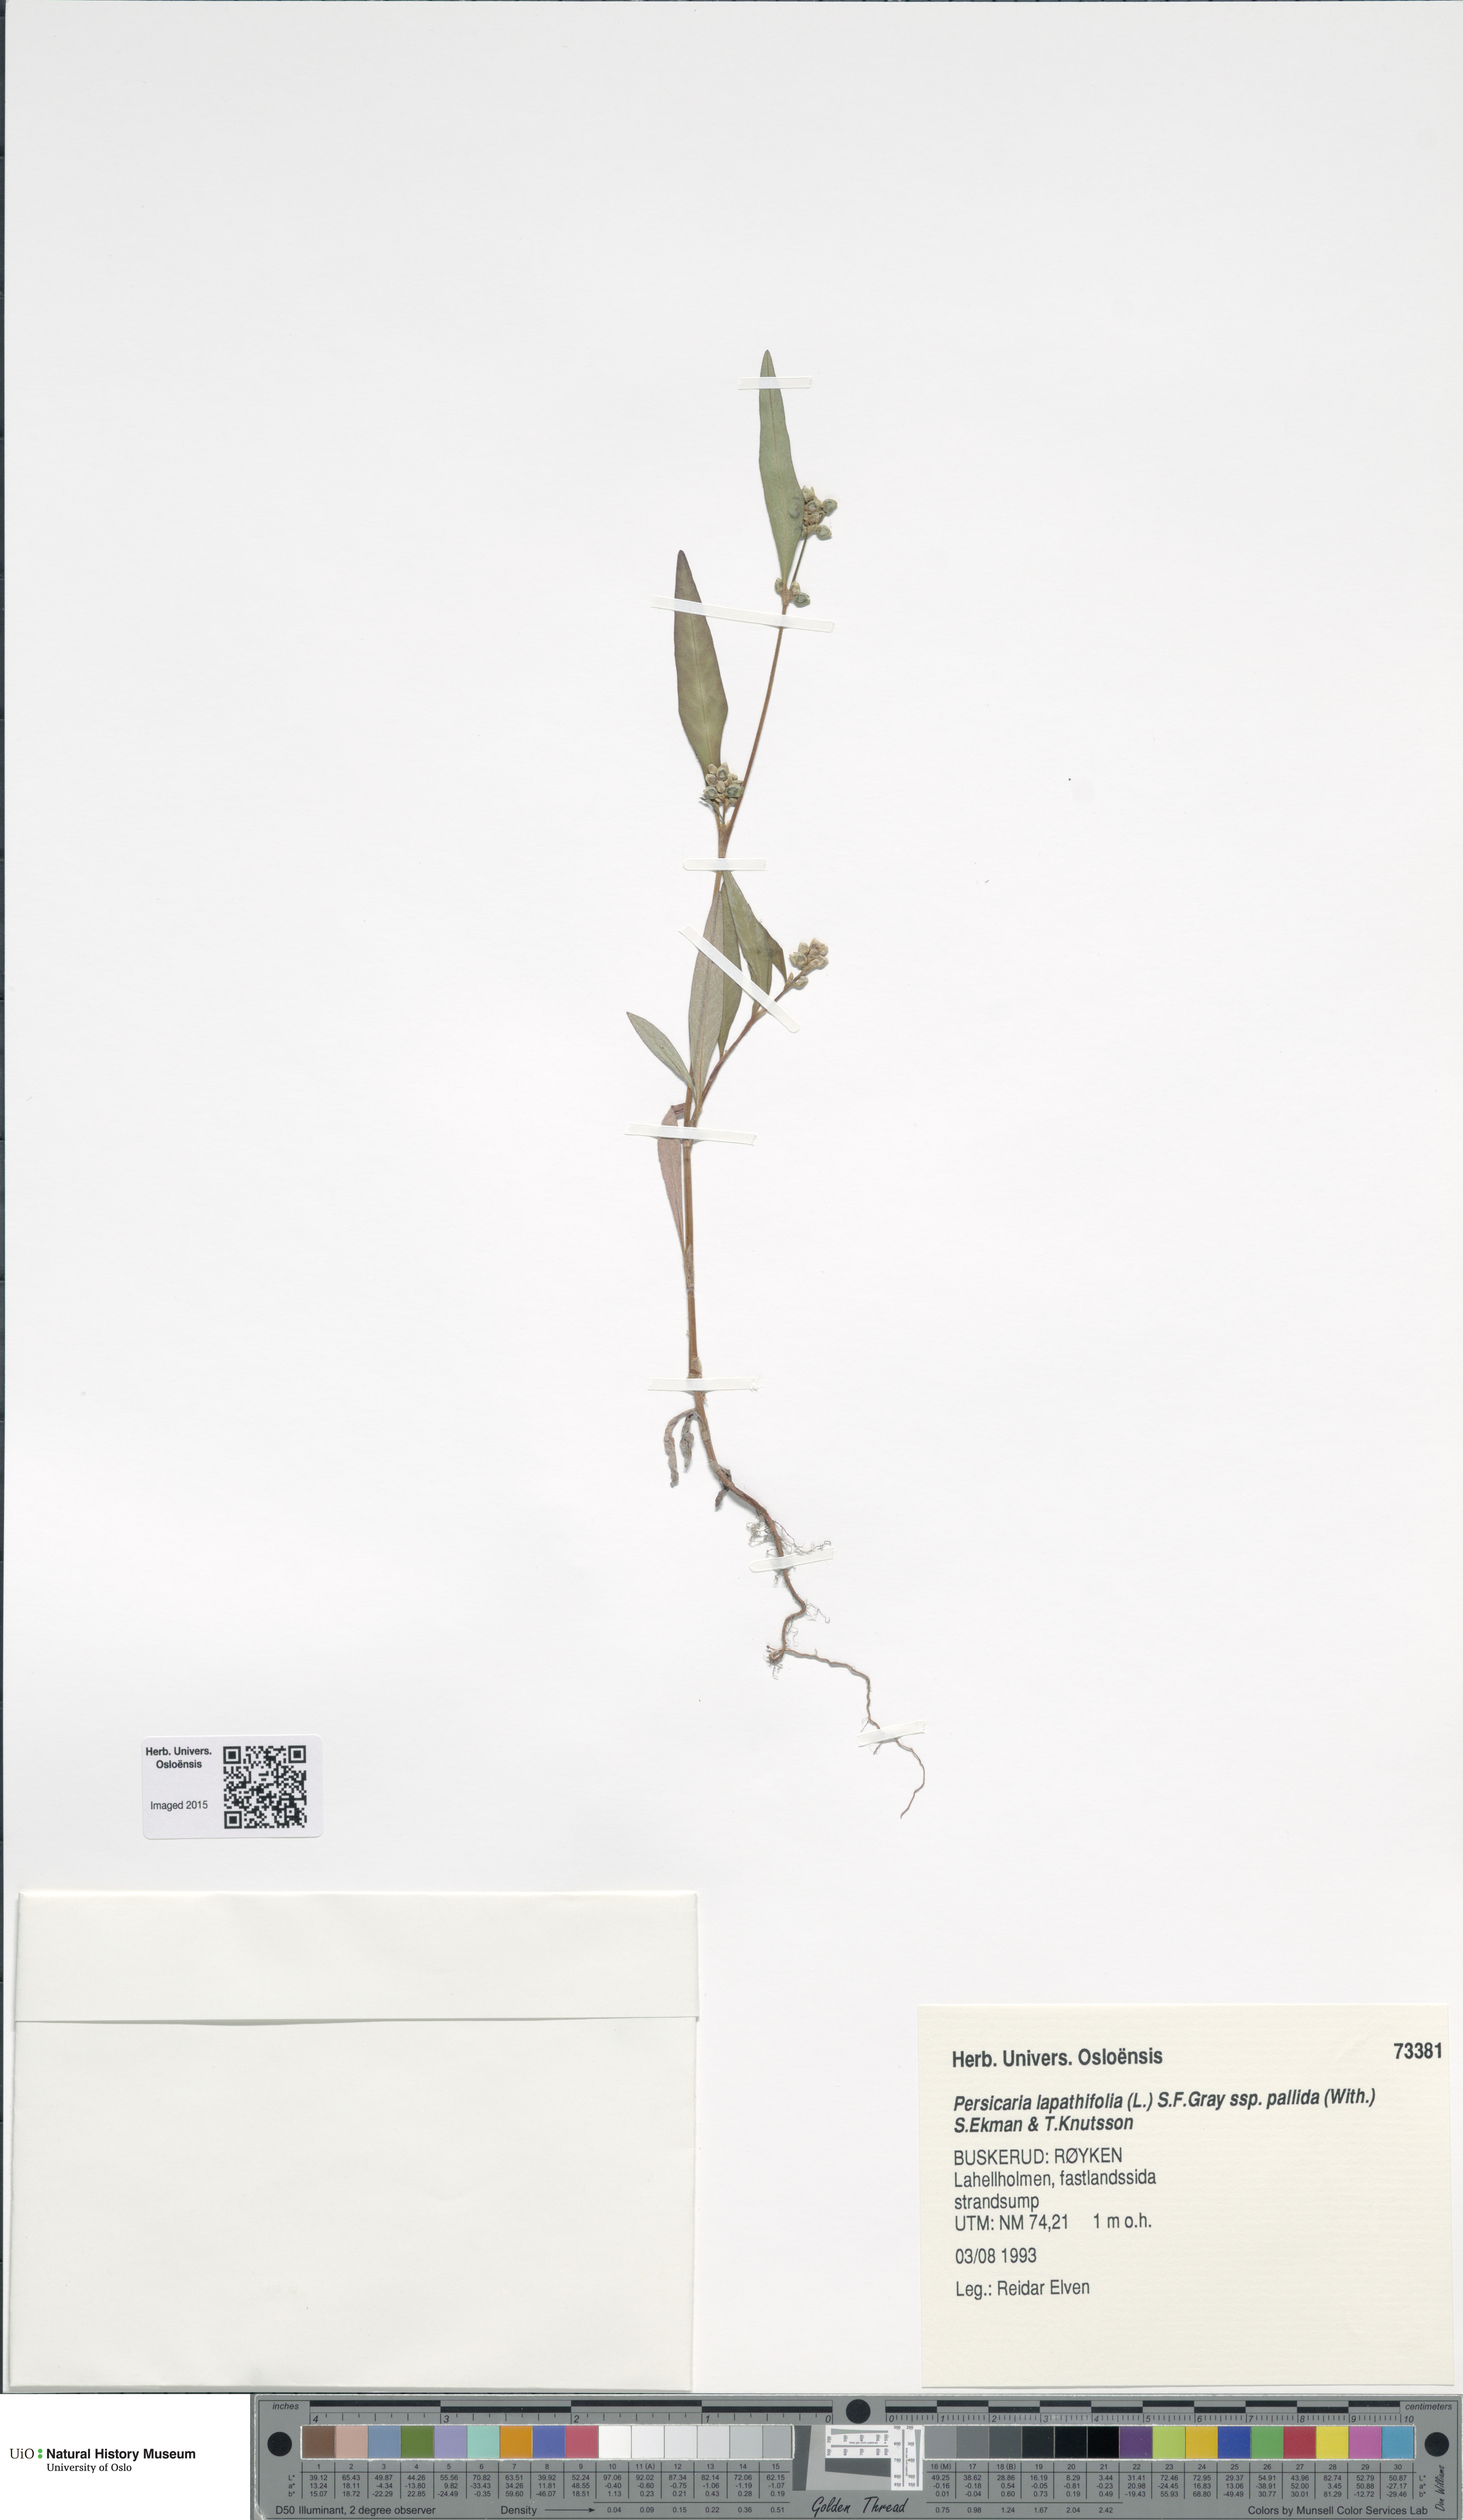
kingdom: Plantae
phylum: Tracheophyta
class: Magnoliopsida
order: Caryophyllales
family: Polygonaceae
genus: Persicaria
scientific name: Persicaria lapathifolia
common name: Curlytop knotweed
